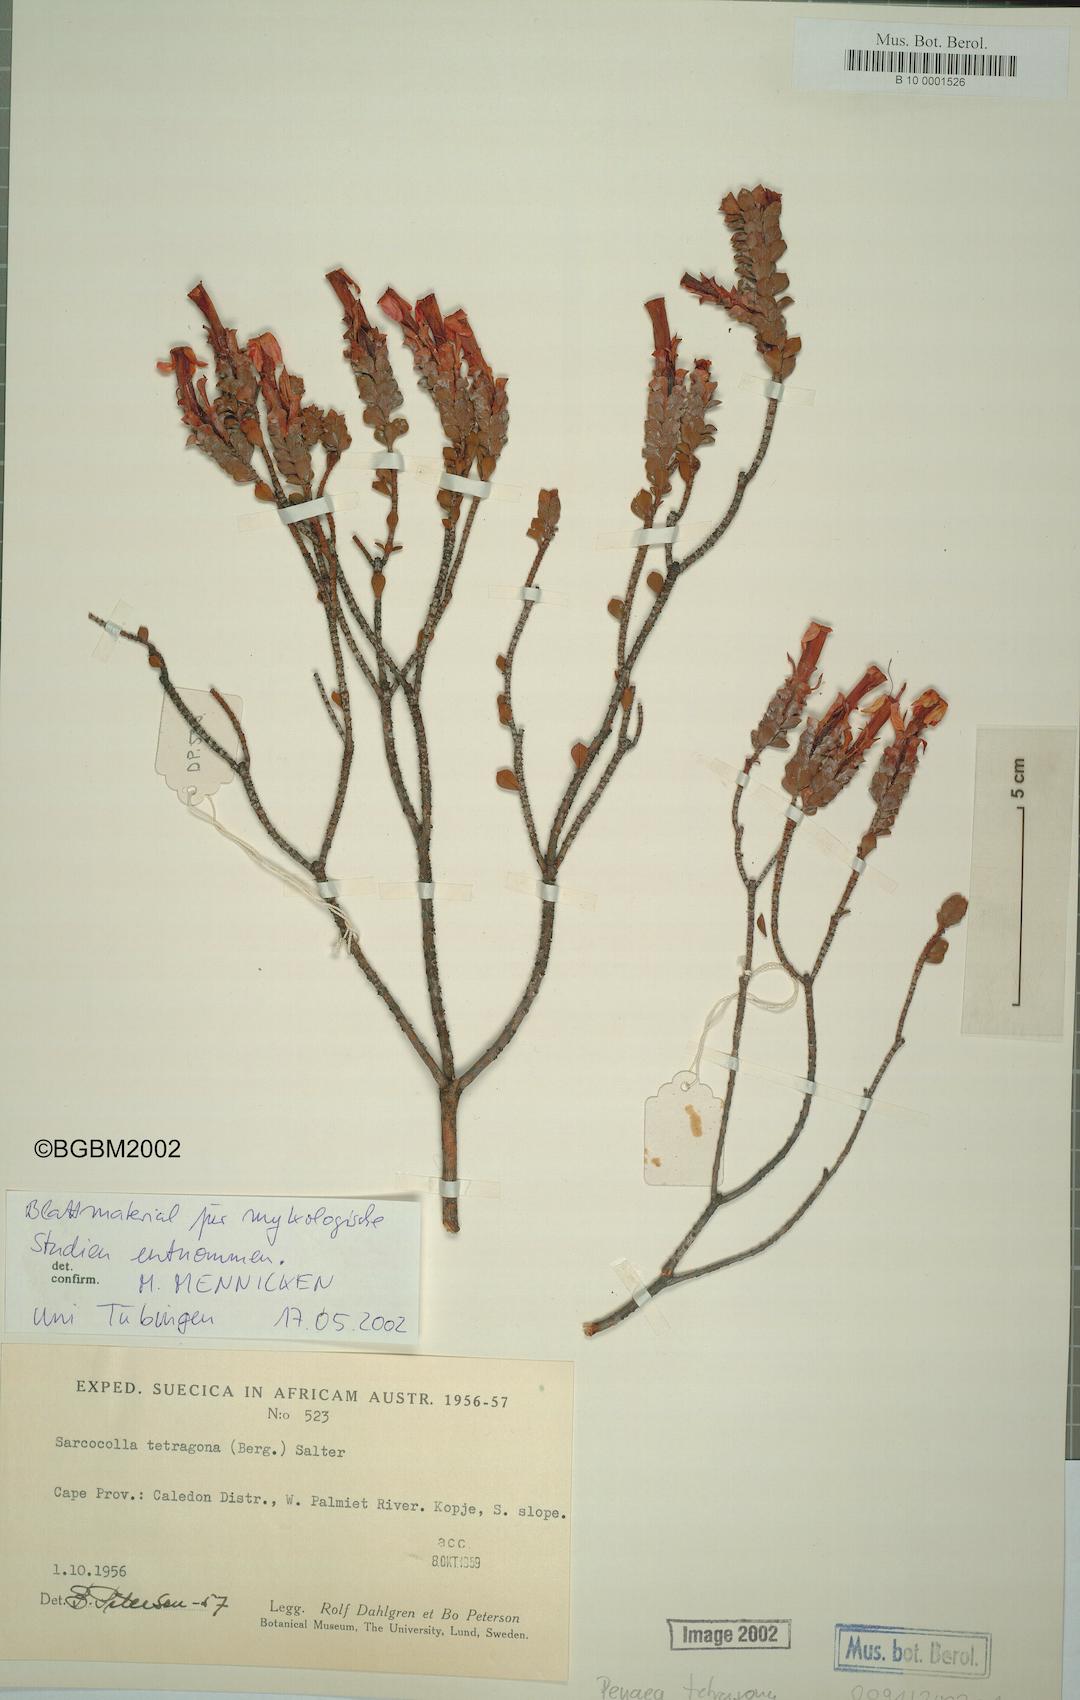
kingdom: Plantae
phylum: Tracheophyta
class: Magnoliopsida
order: Myrtales
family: Penaeaceae
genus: Saltera
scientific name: Saltera sarcocolla
